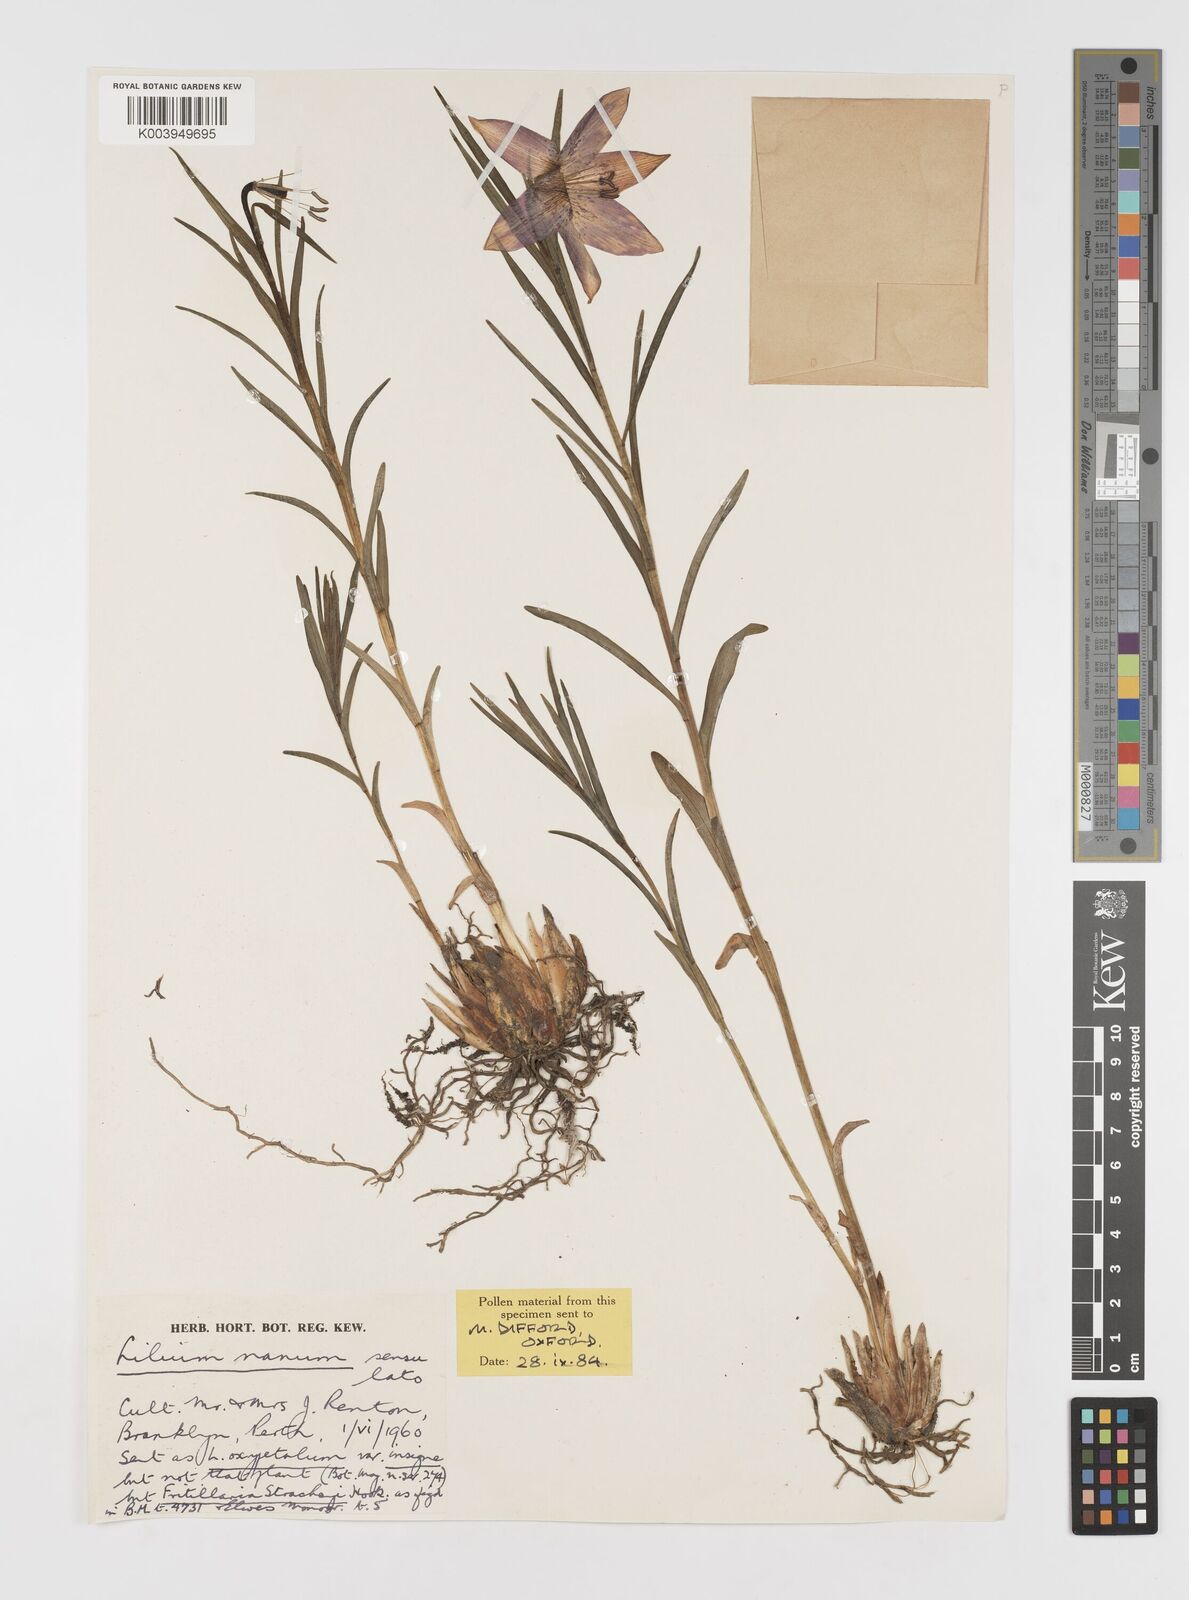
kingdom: Plantae
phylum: Tracheophyta
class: Liliopsida
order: Liliales
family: Liliaceae
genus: Lilium
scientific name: Lilium nanum
